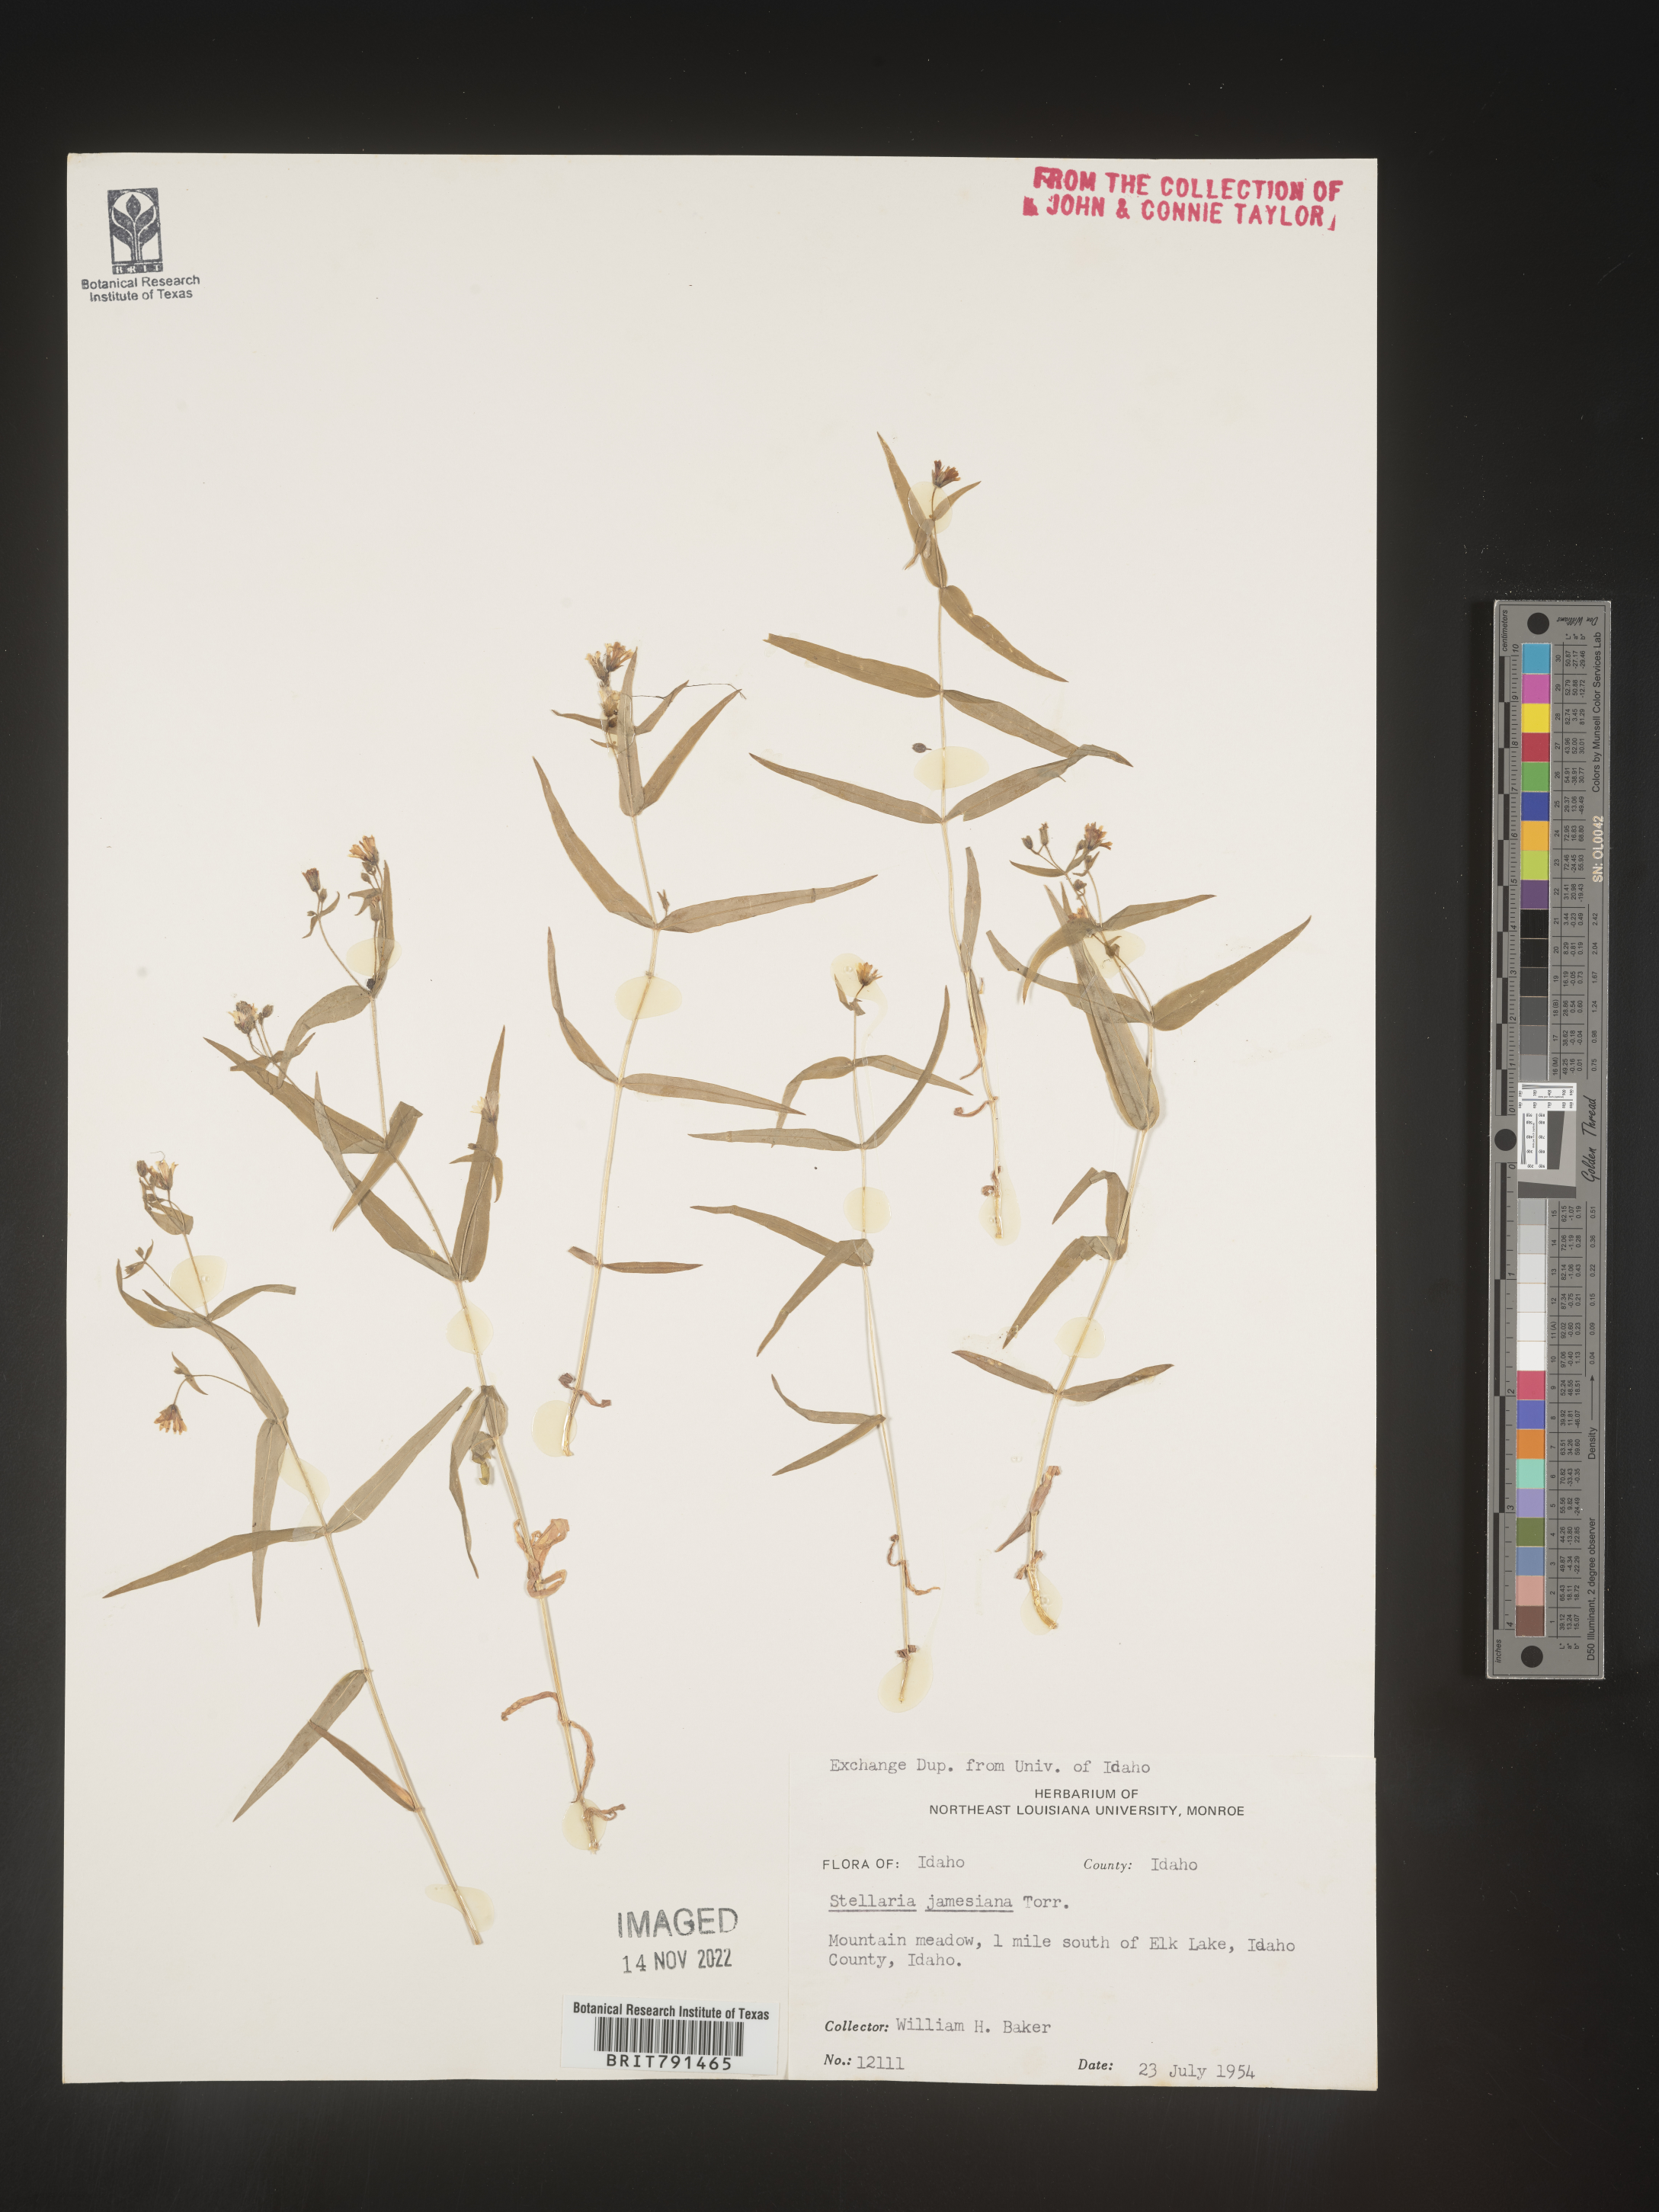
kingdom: Plantae
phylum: Tracheophyta
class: Magnoliopsida
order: Caryophyllales
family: Caryophyllaceae
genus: Pseudostellaria
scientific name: Pseudostellaria
